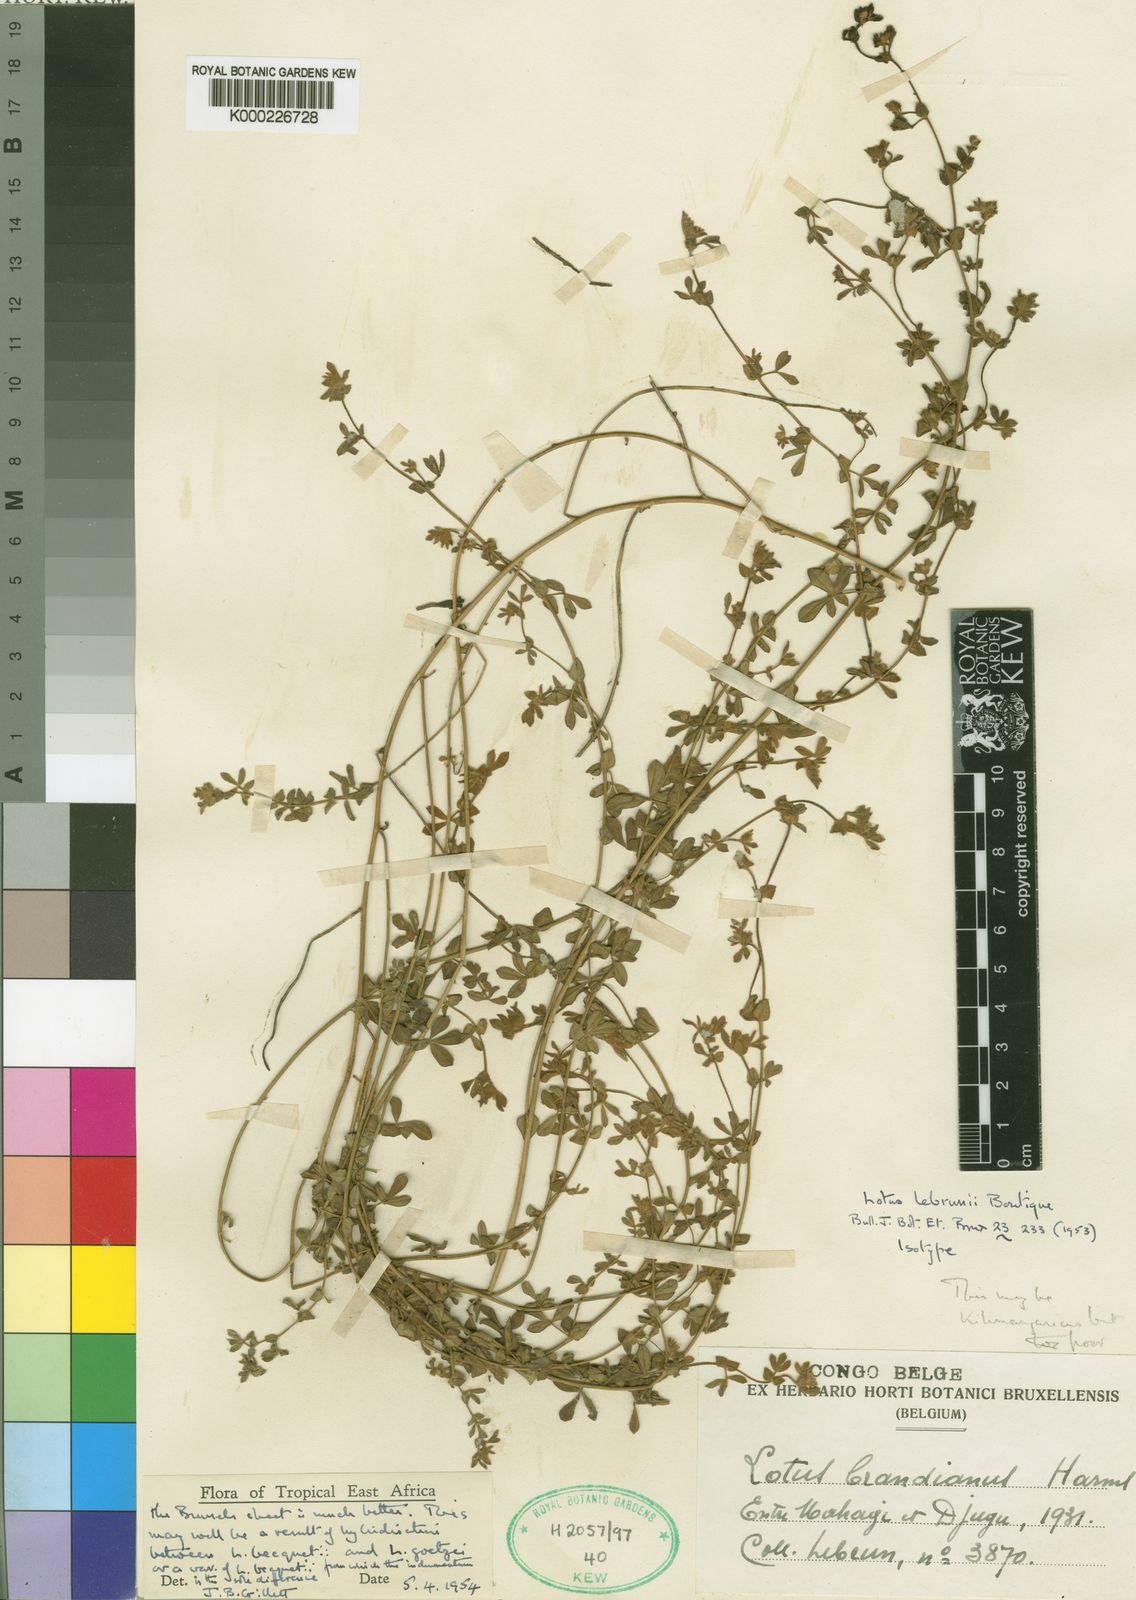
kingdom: Plantae
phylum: Tracheophyta
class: Magnoliopsida
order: Fabales
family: Fabaceae
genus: Lotus
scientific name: Lotus lebrunii
